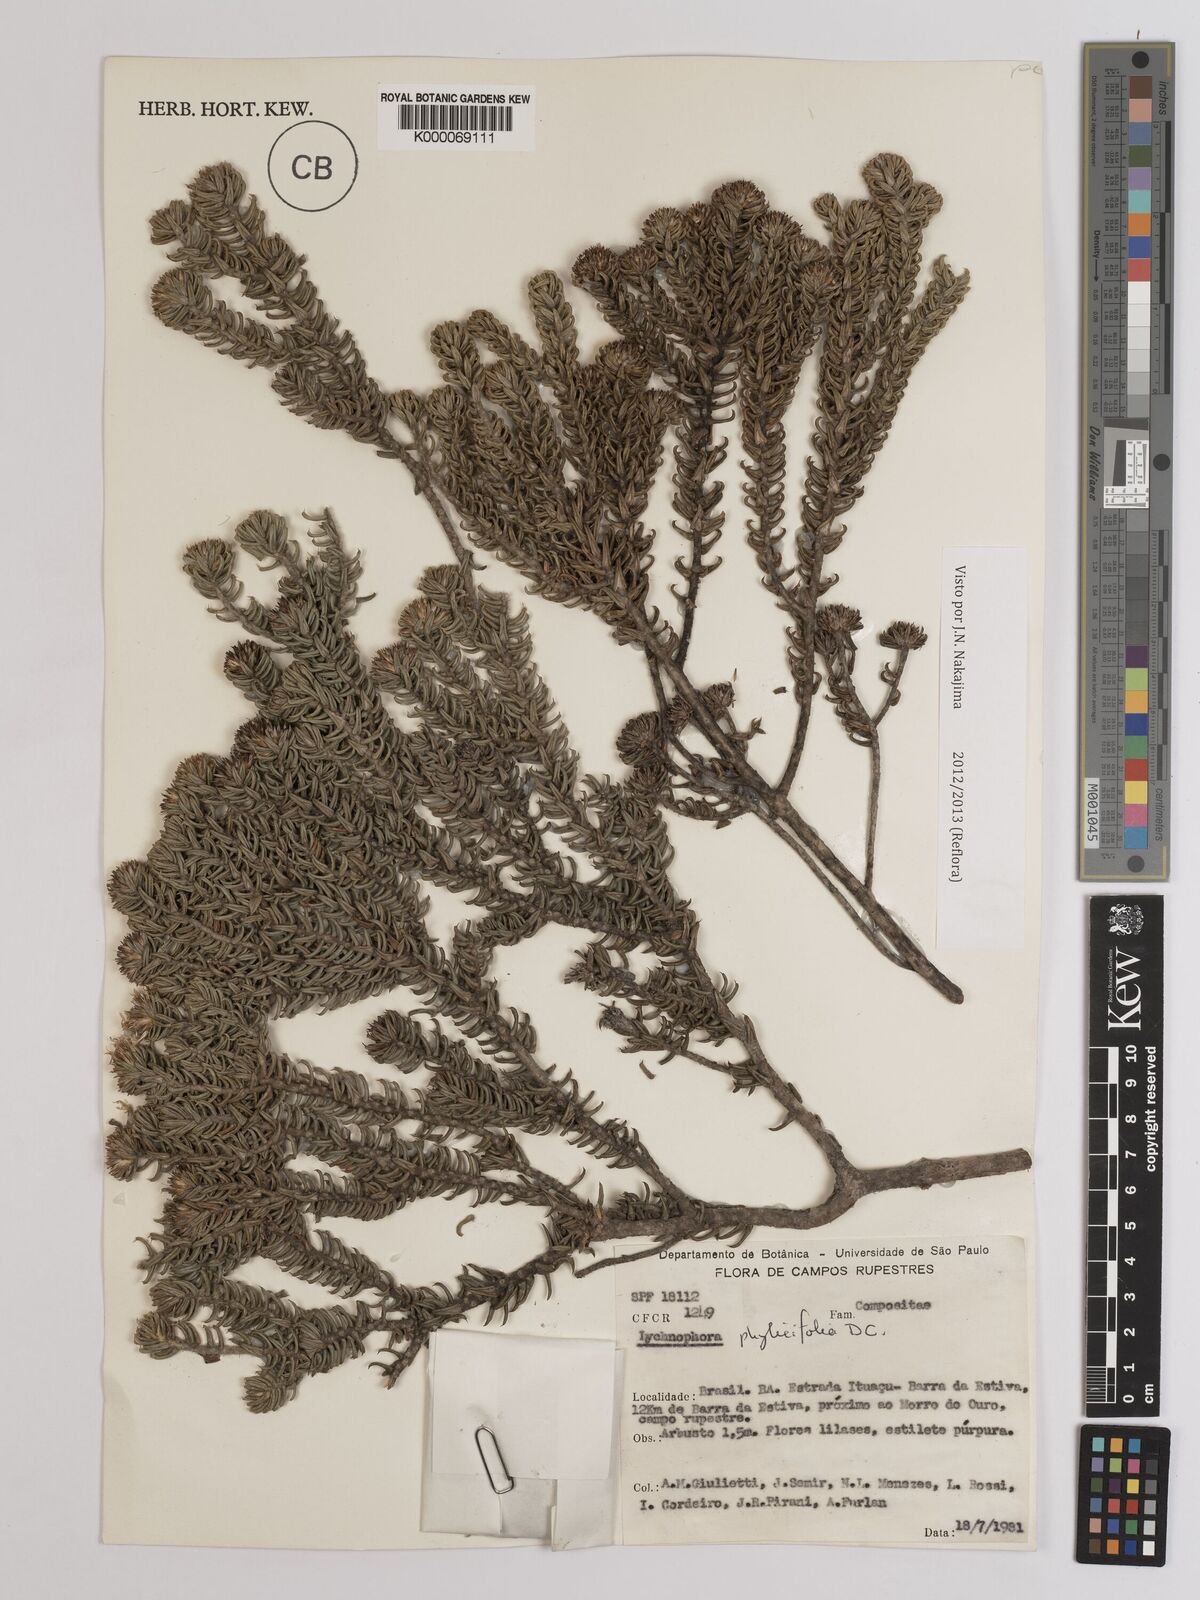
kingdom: Plantae
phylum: Tracheophyta
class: Magnoliopsida
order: Asterales
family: Asteraceae
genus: Lychnophora
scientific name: Lychnophora phylicifolia
